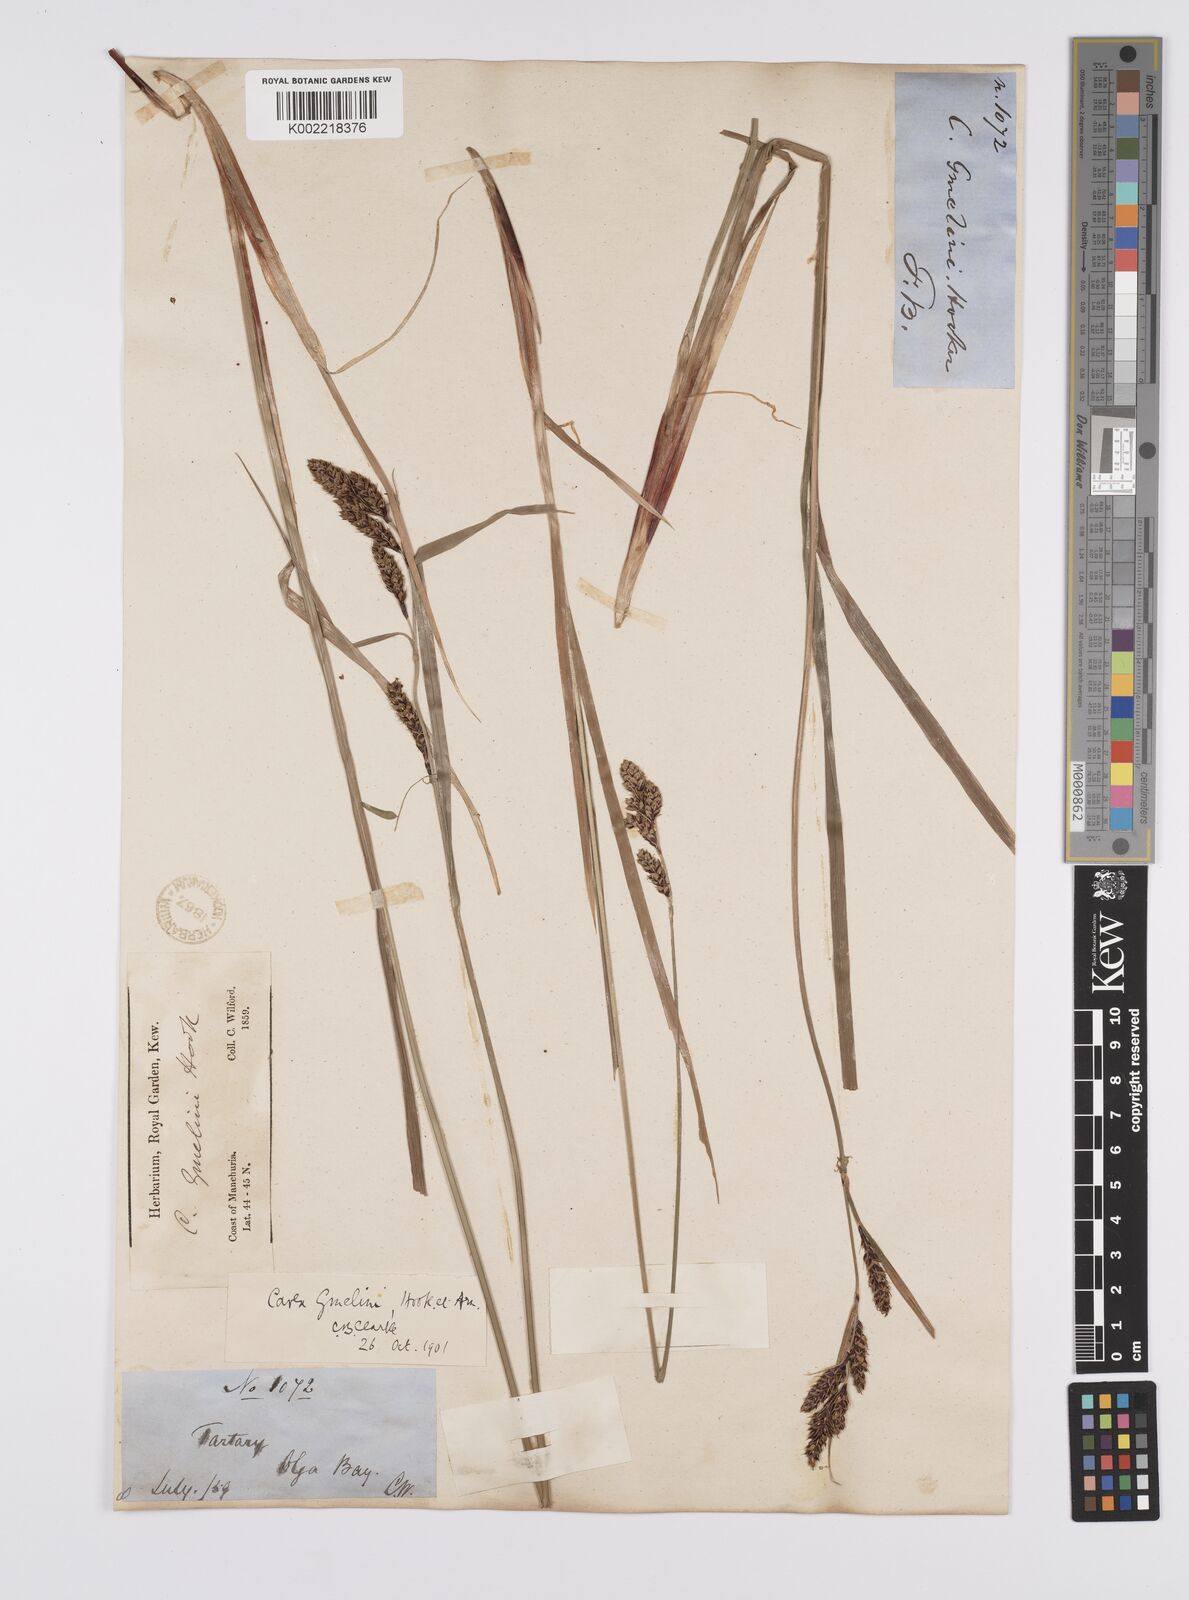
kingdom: Plantae
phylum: Tracheophyta
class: Liliopsida
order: Poales
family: Cyperaceae
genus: Carex
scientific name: Carex gmelinii
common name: Gmelin's sedge
